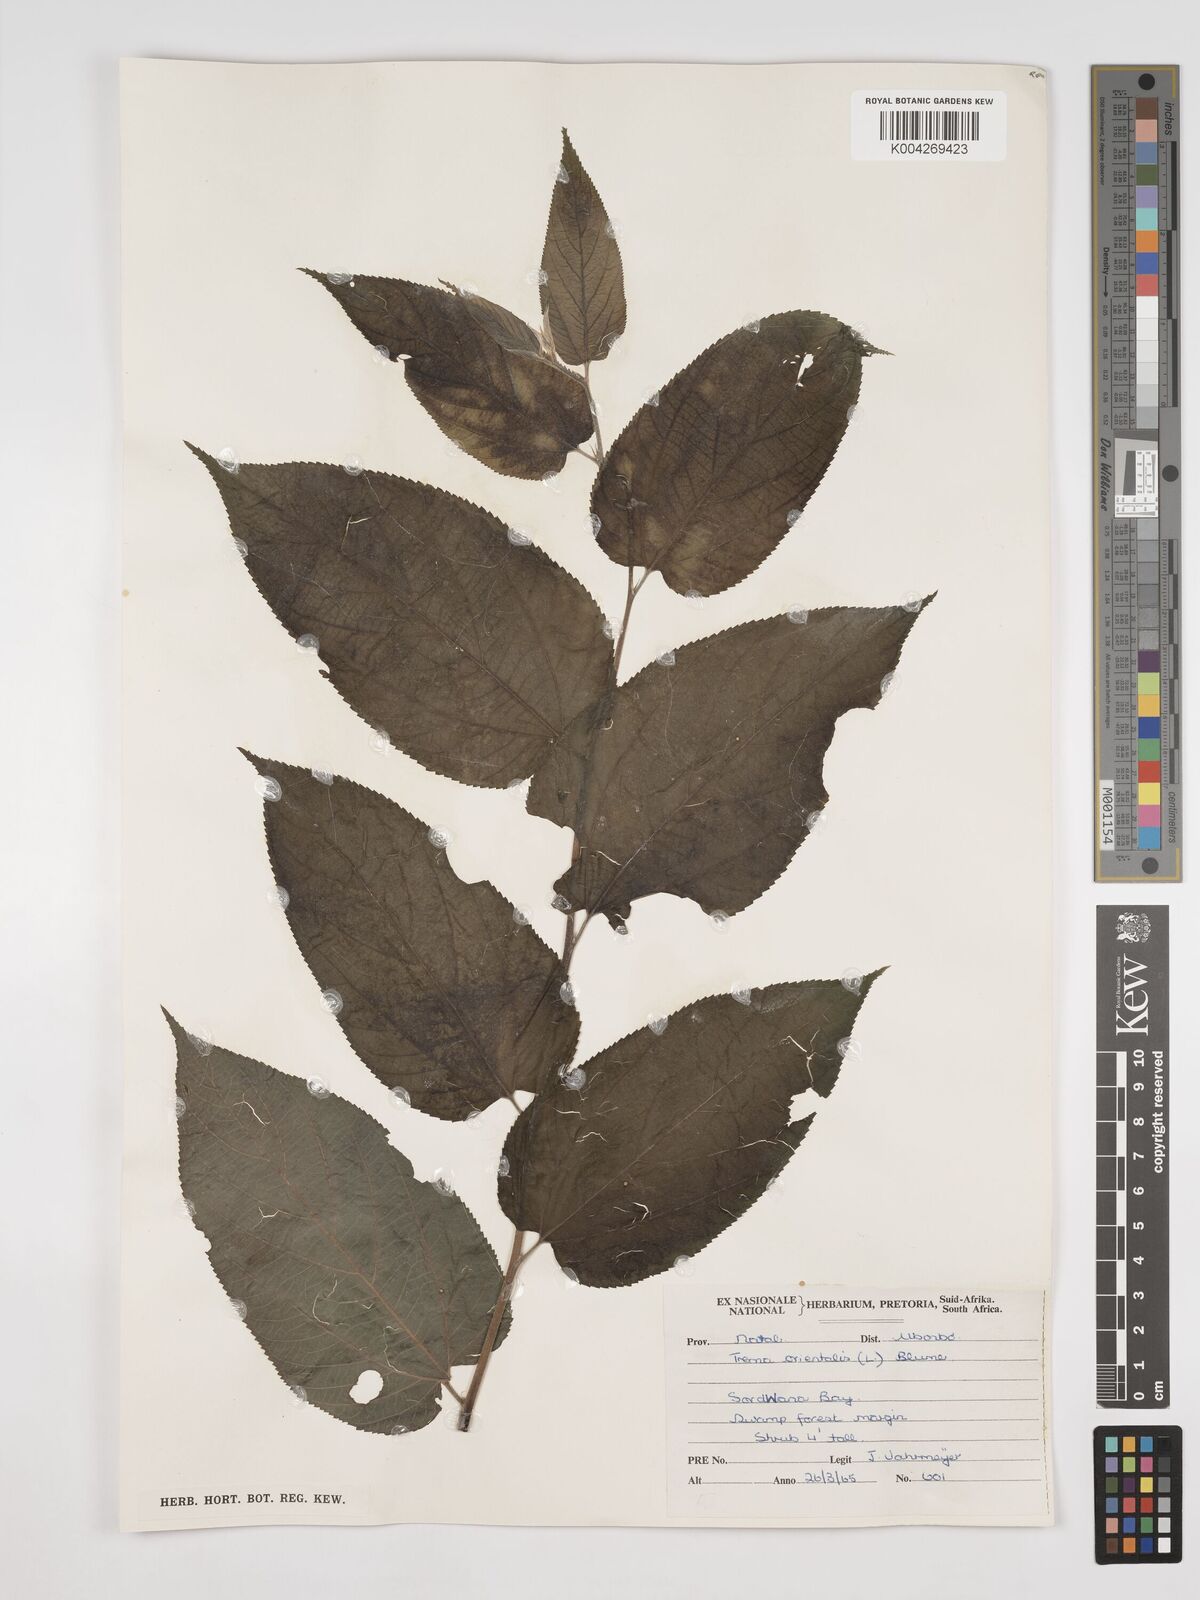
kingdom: Plantae
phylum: Tracheophyta
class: Magnoliopsida
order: Rosales
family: Cannabaceae
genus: Trema
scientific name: Trema orientale
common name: Indian charcoal tree
